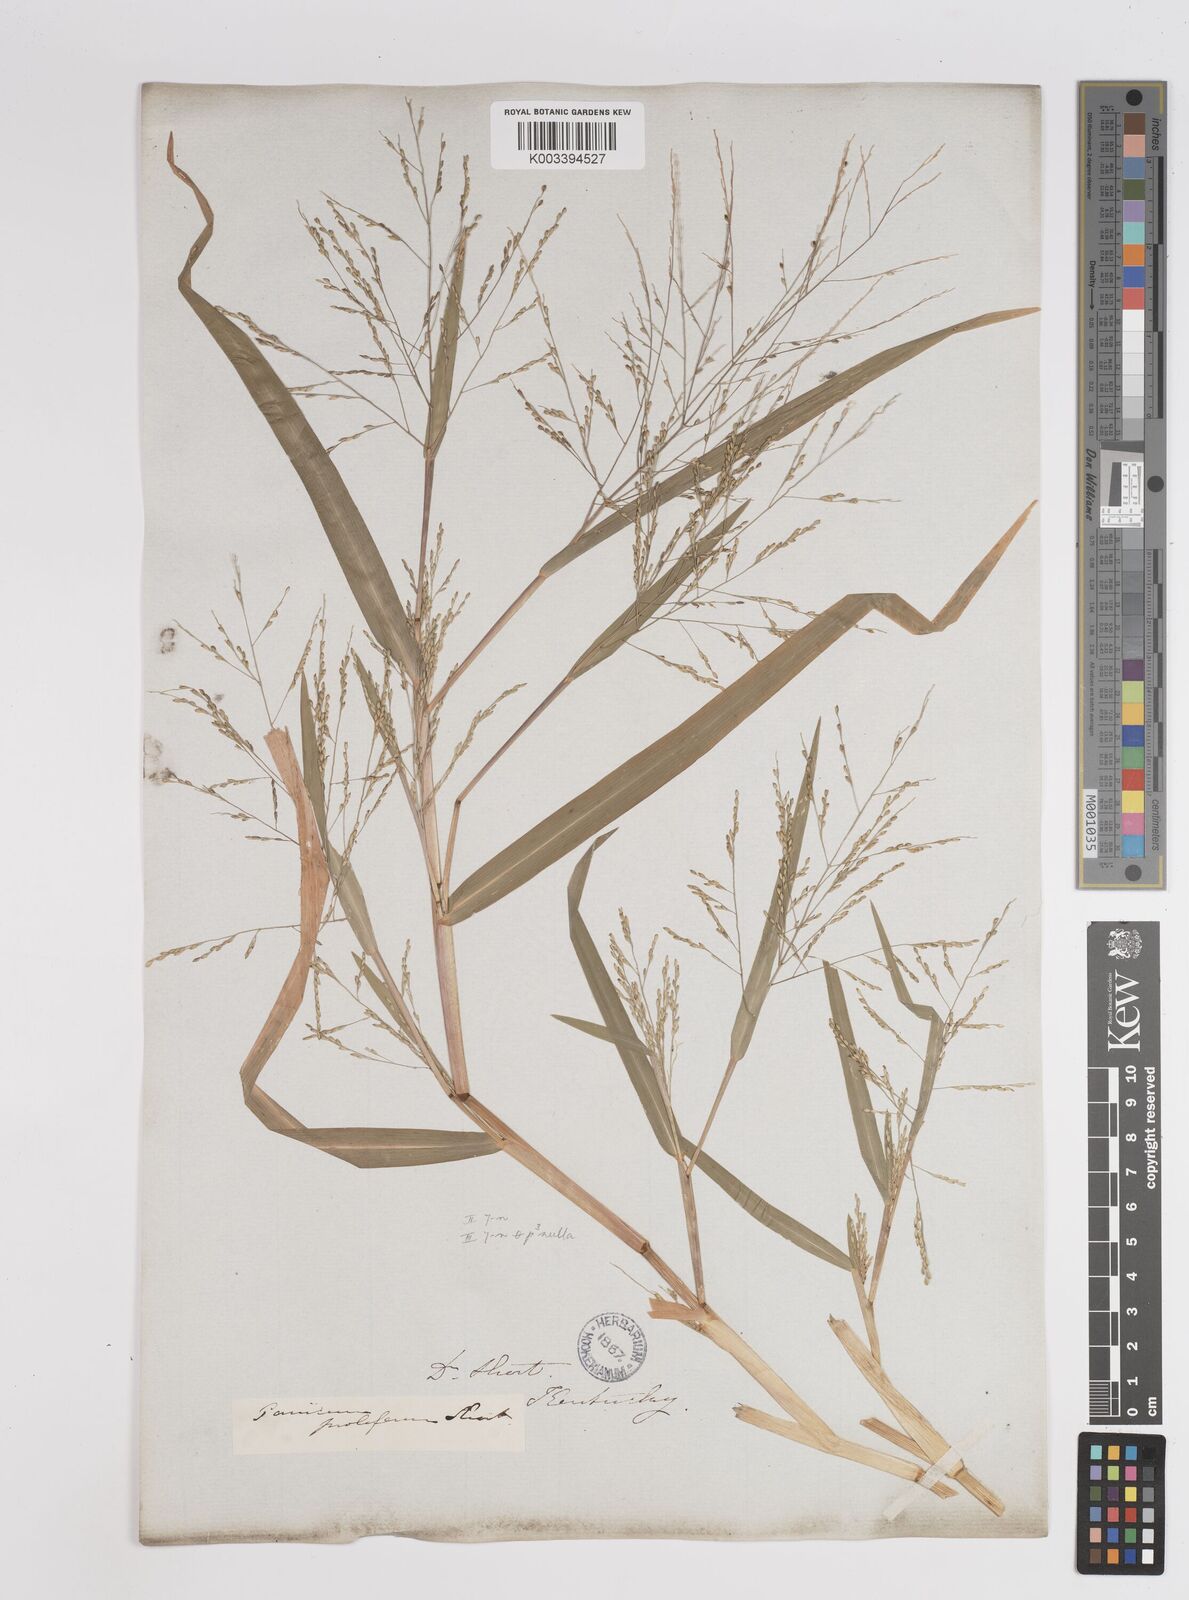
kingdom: Plantae
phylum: Tracheophyta
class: Liliopsida
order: Poales
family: Poaceae
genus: Panicum
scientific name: Panicum dichotomiflorum
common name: Autumn millet
